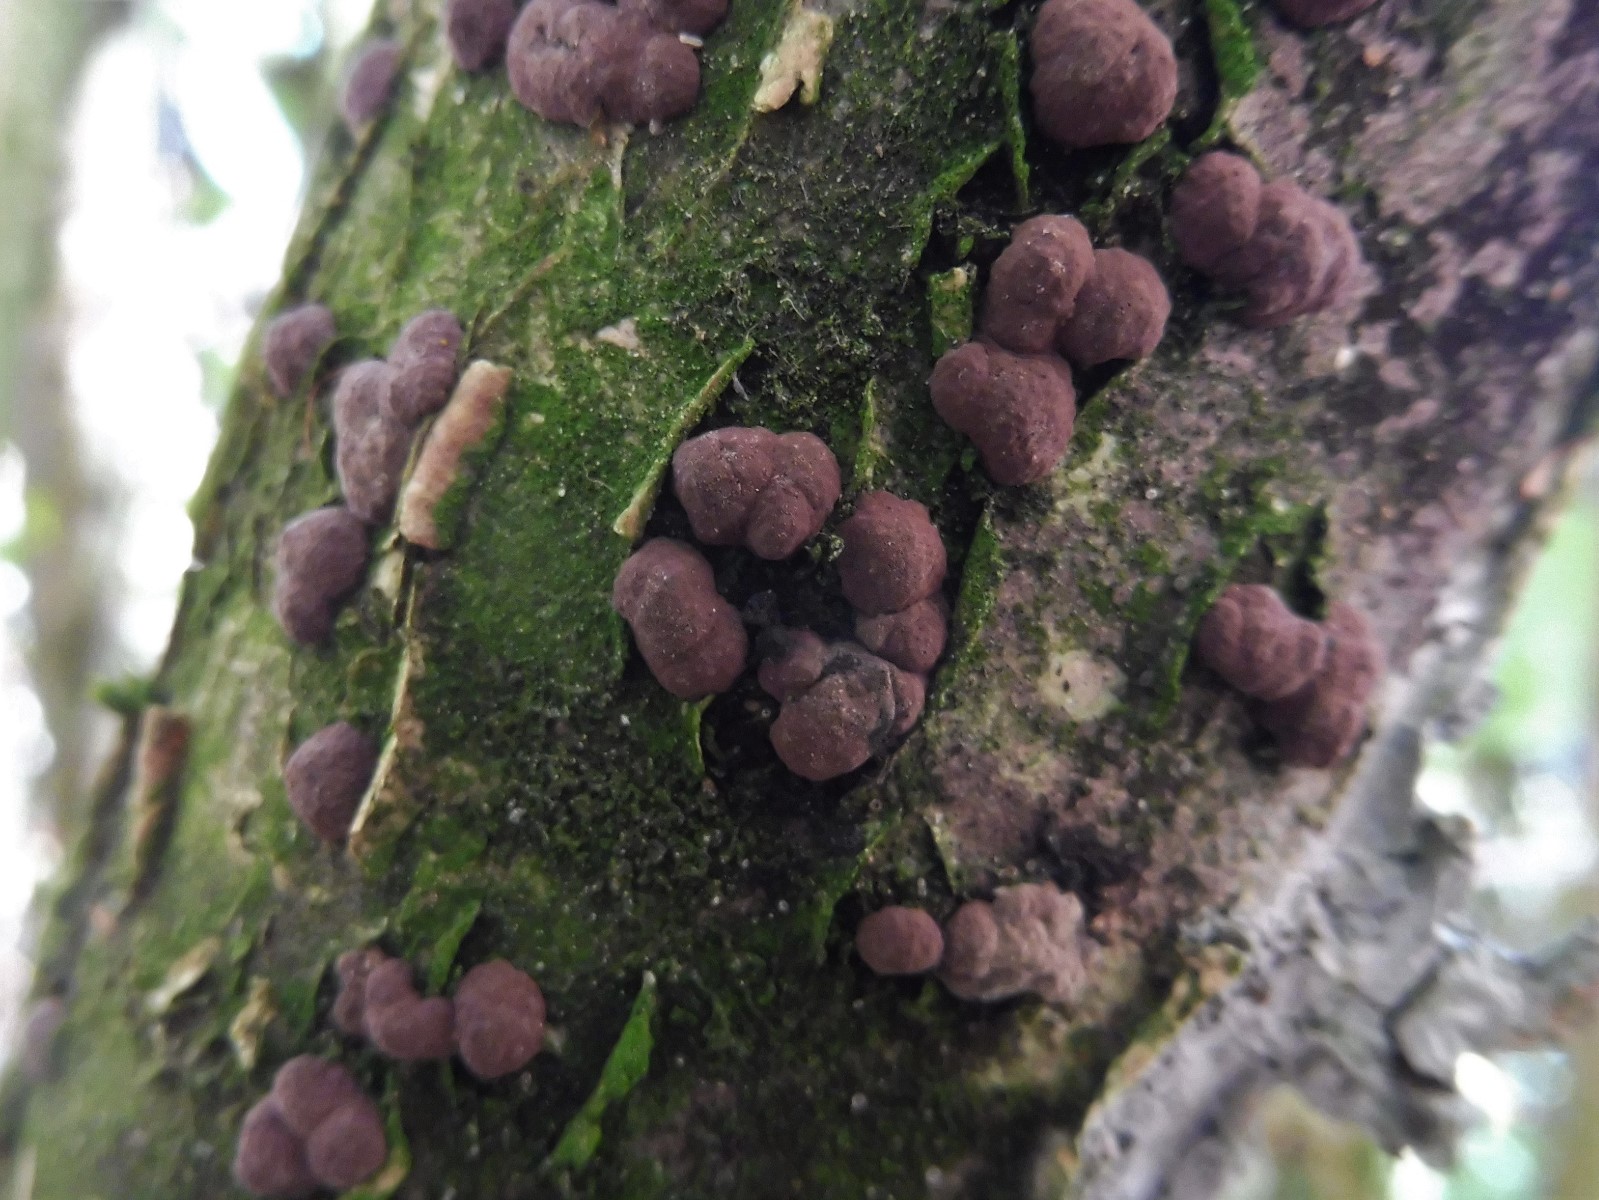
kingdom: Fungi
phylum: Ascomycota
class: Sordariomycetes
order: Xylariales
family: Hypoxylaceae
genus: Hypoxylon
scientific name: Hypoxylon fuscum
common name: kegleformet kulbær
